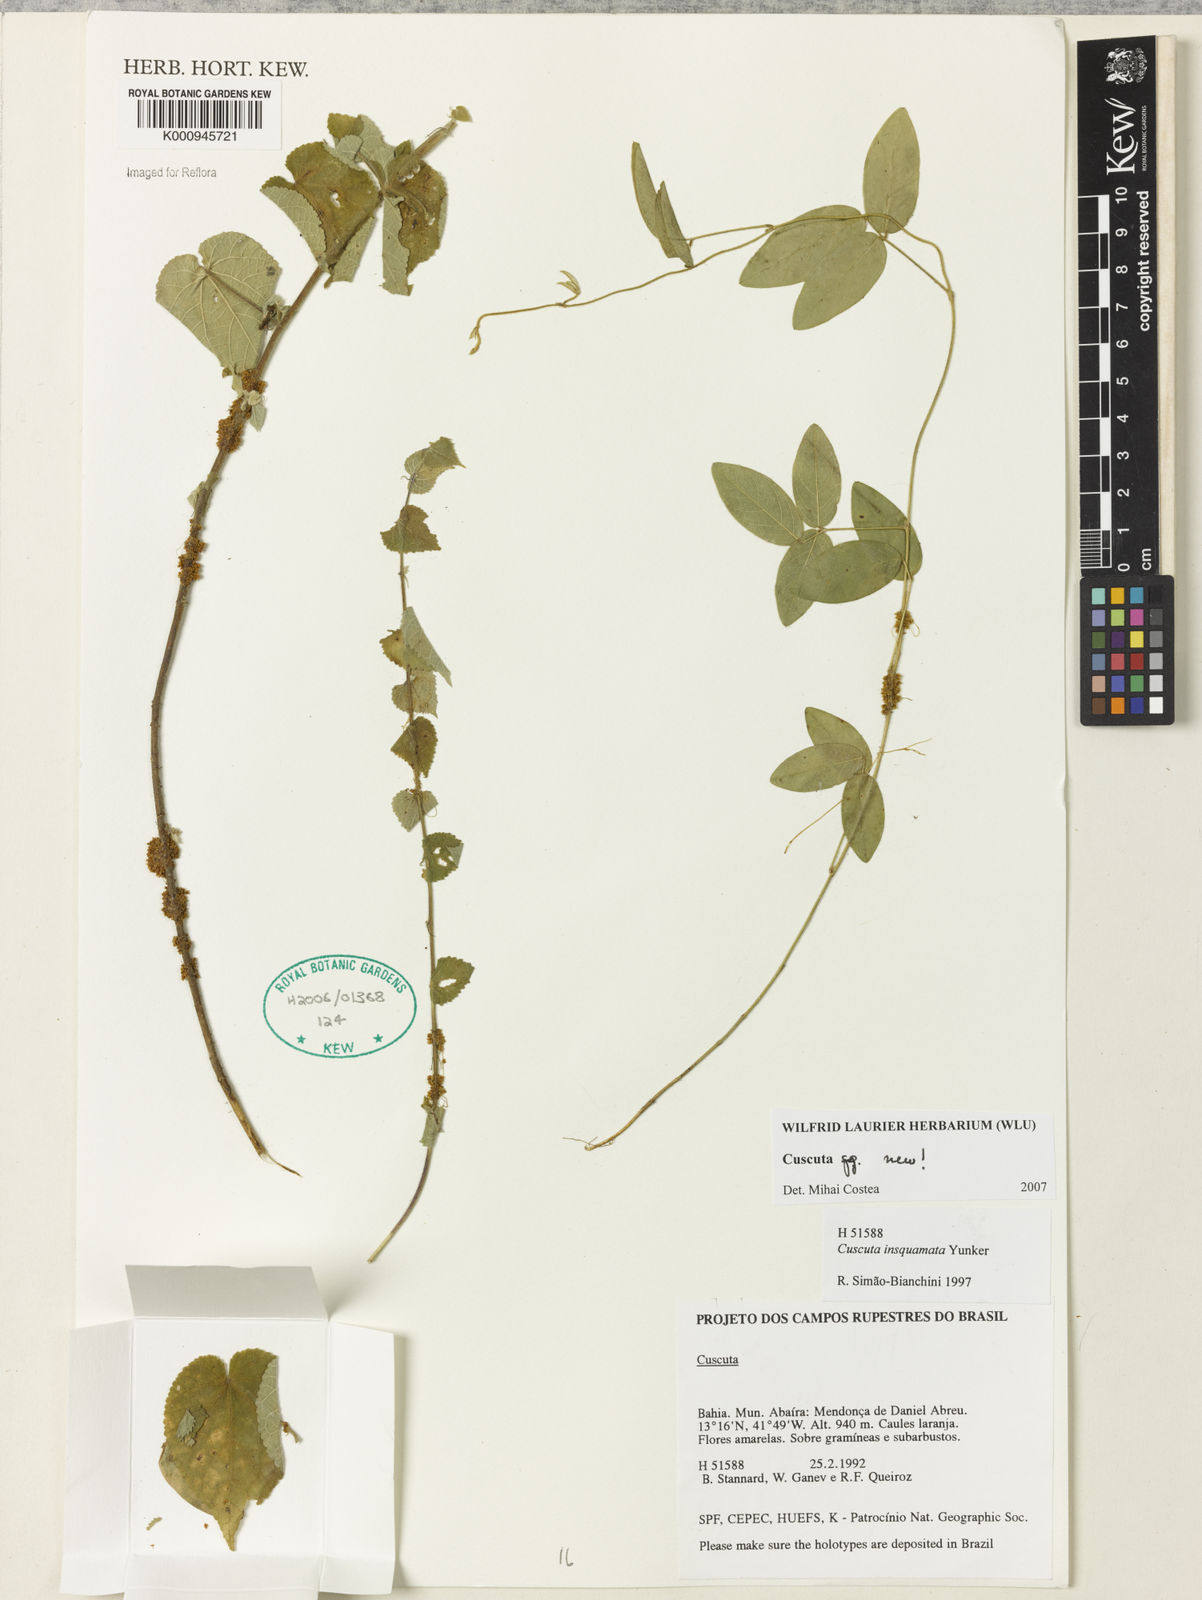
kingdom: Plantae
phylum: Tracheophyta
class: Magnoliopsida
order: Solanales
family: Convolvulaceae
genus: Cuscuta
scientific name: Cuscuta
